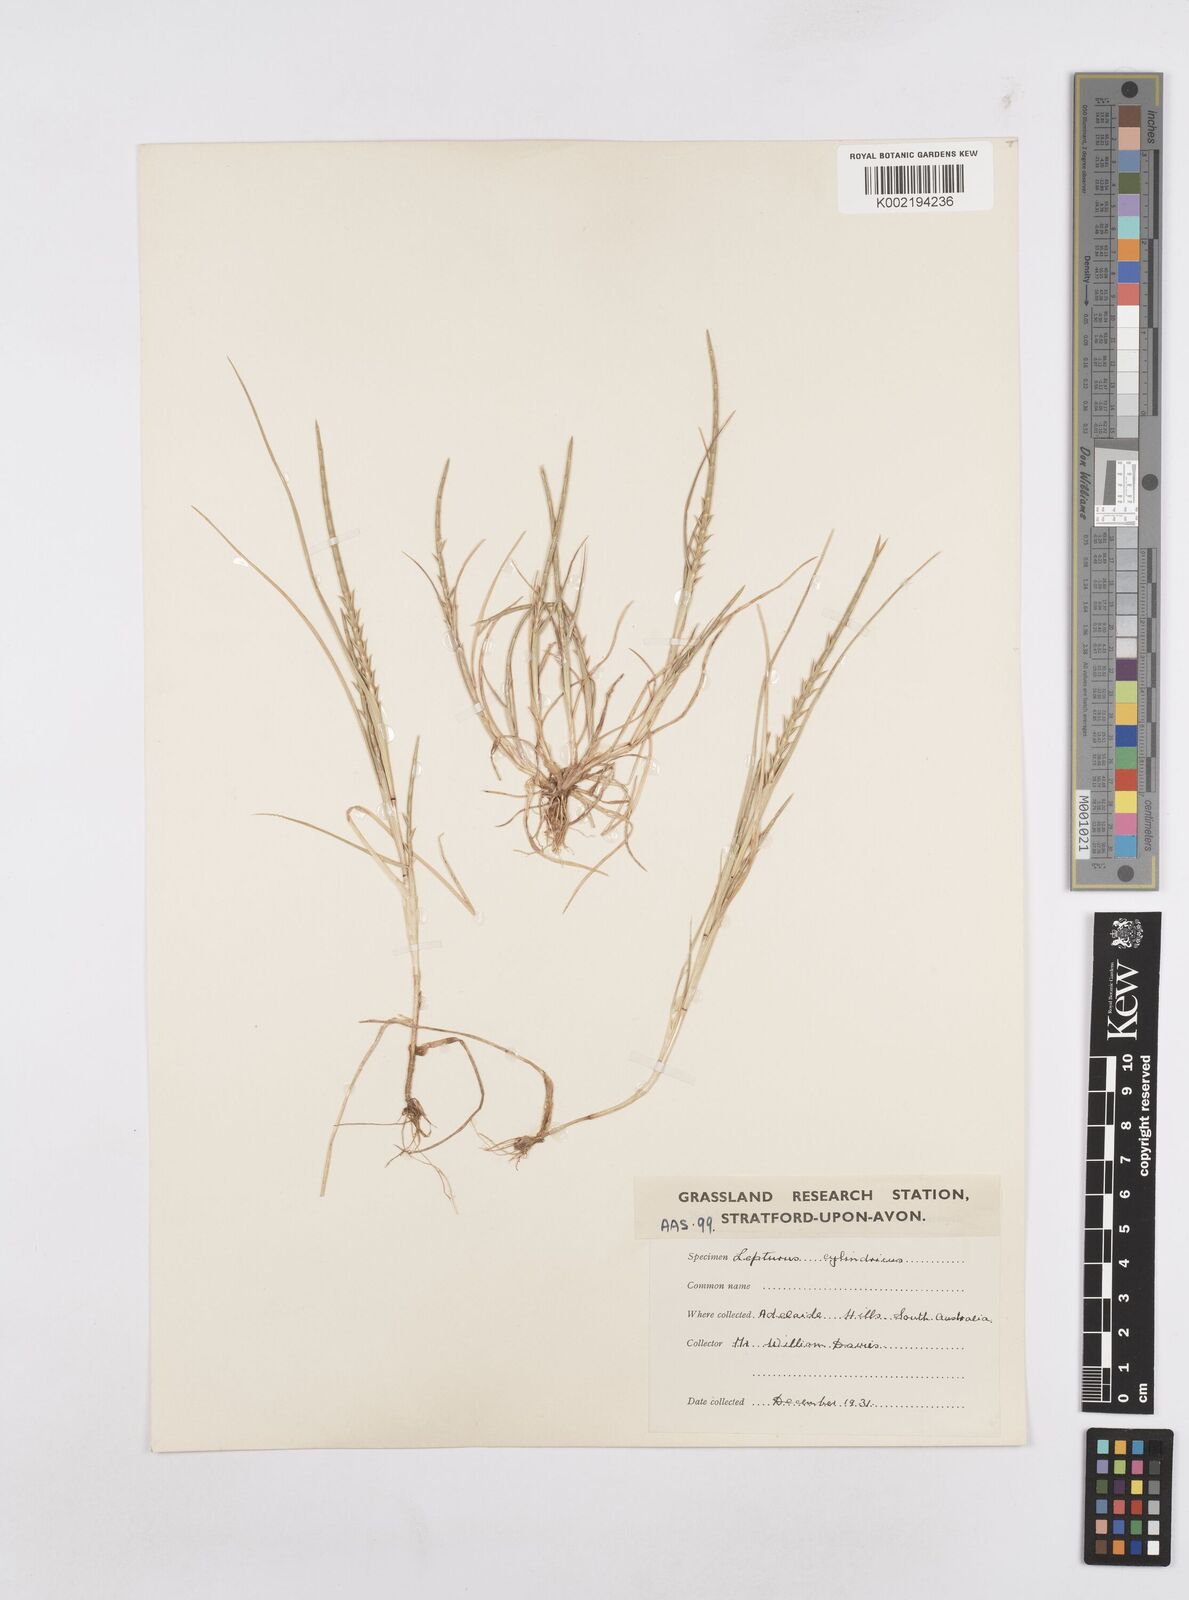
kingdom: Plantae
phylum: Tracheophyta
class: Liliopsida
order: Poales
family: Poaceae
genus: Parapholis
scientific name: Parapholis cylindrica
